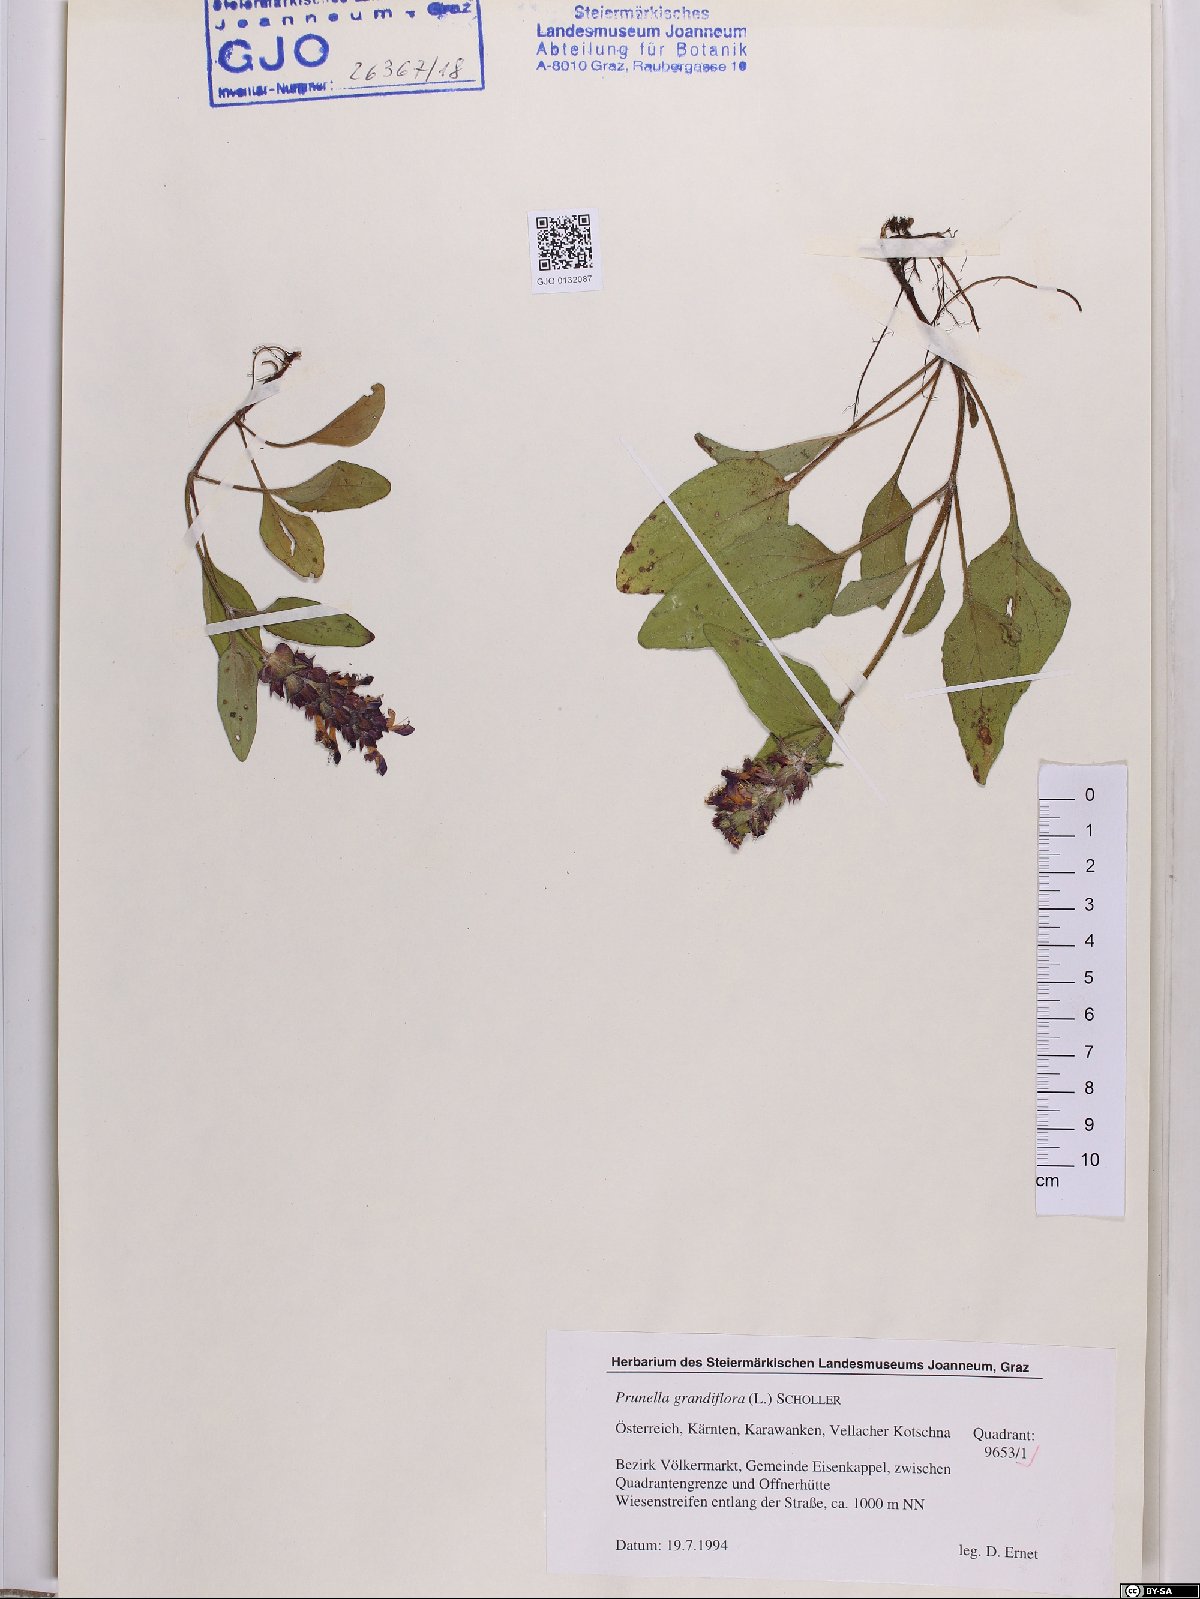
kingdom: Plantae
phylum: Tracheophyta
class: Magnoliopsida
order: Lamiales
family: Lamiaceae
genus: Prunella
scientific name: Prunella grandiflora
